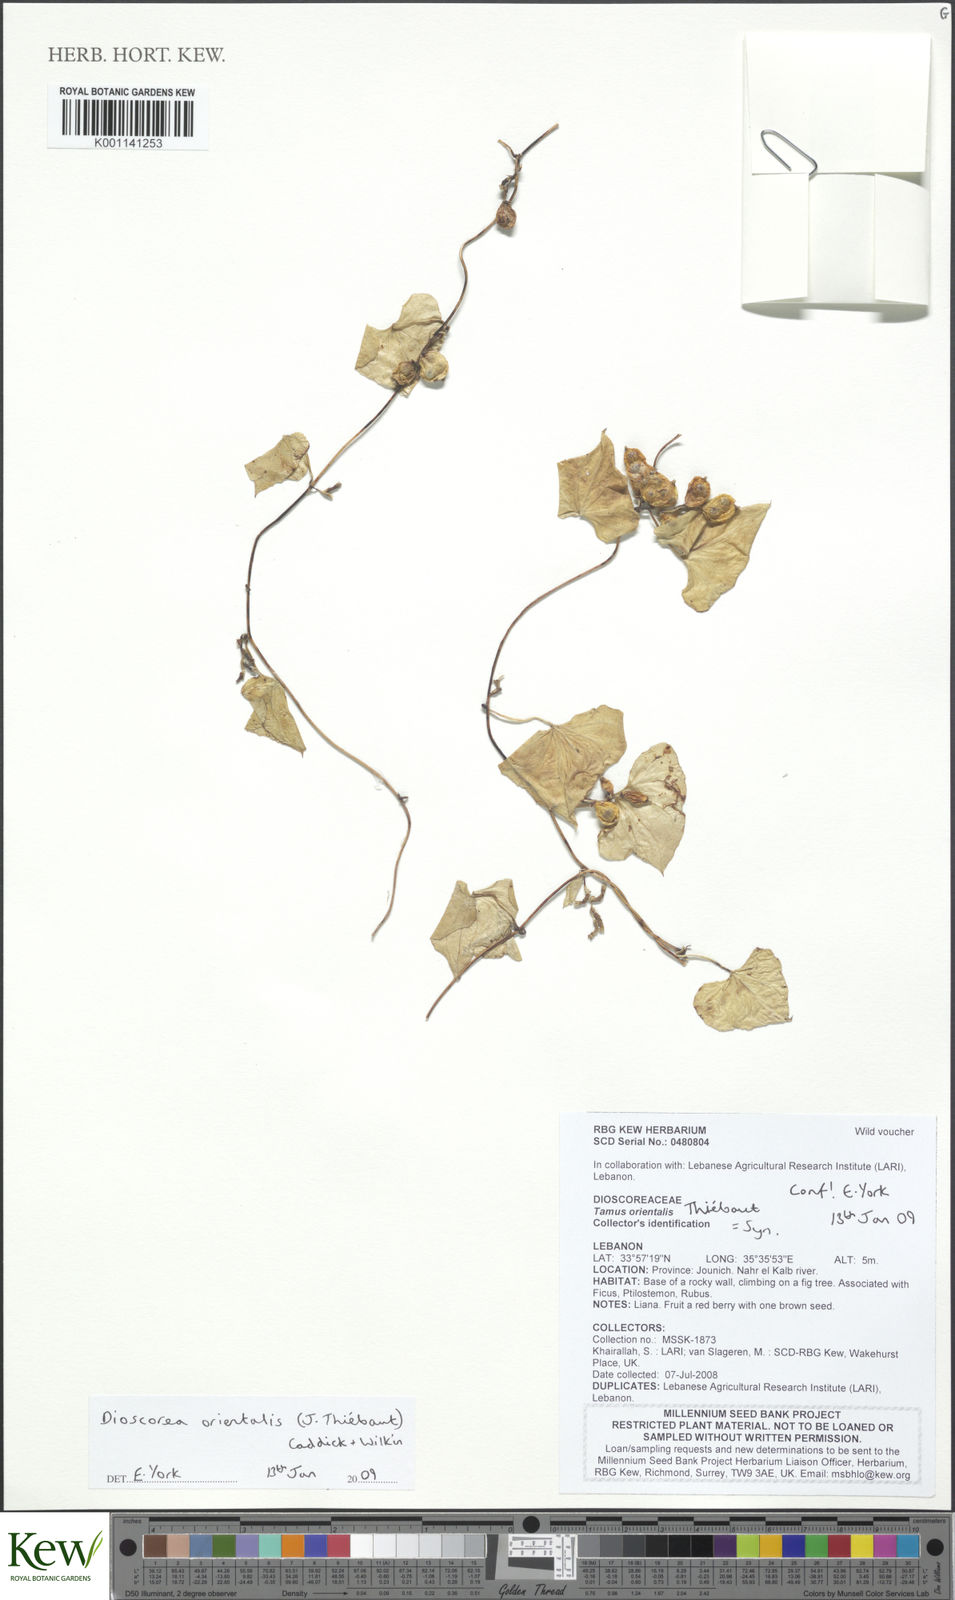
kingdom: Plantae
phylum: Tracheophyta
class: Liliopsida
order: Dioscoreales
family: Dioscoreaceae
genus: Dioscorea
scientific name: Dioscorea
